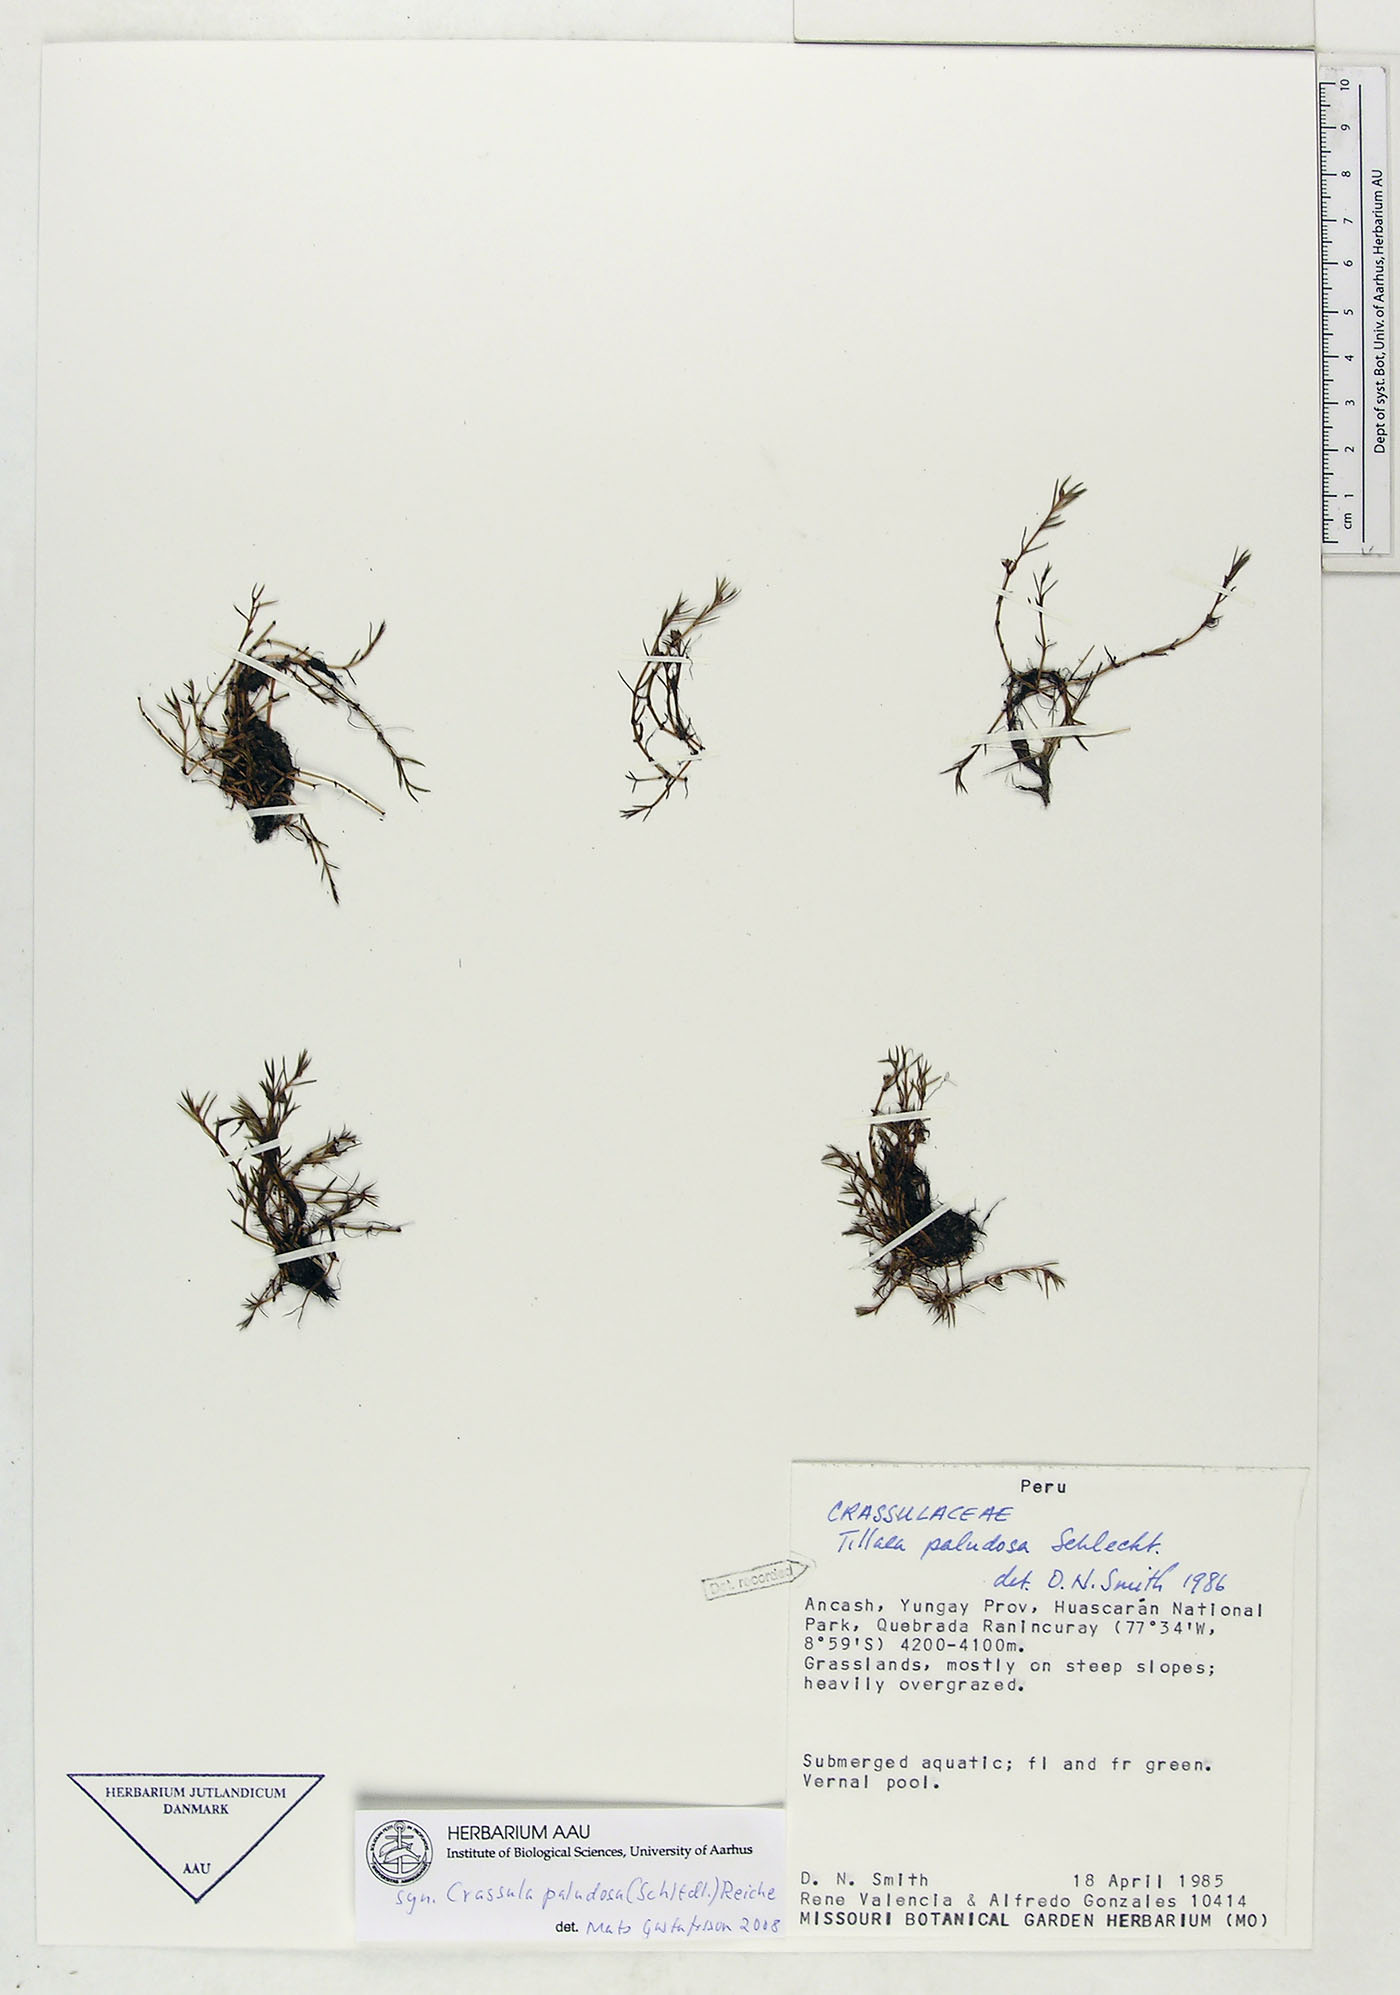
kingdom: Plantae
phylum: Tracheophyta
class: Magnoliopsida
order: Saxifragales
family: Crassulaceae
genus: Crassula
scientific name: Crassula peduncularis
